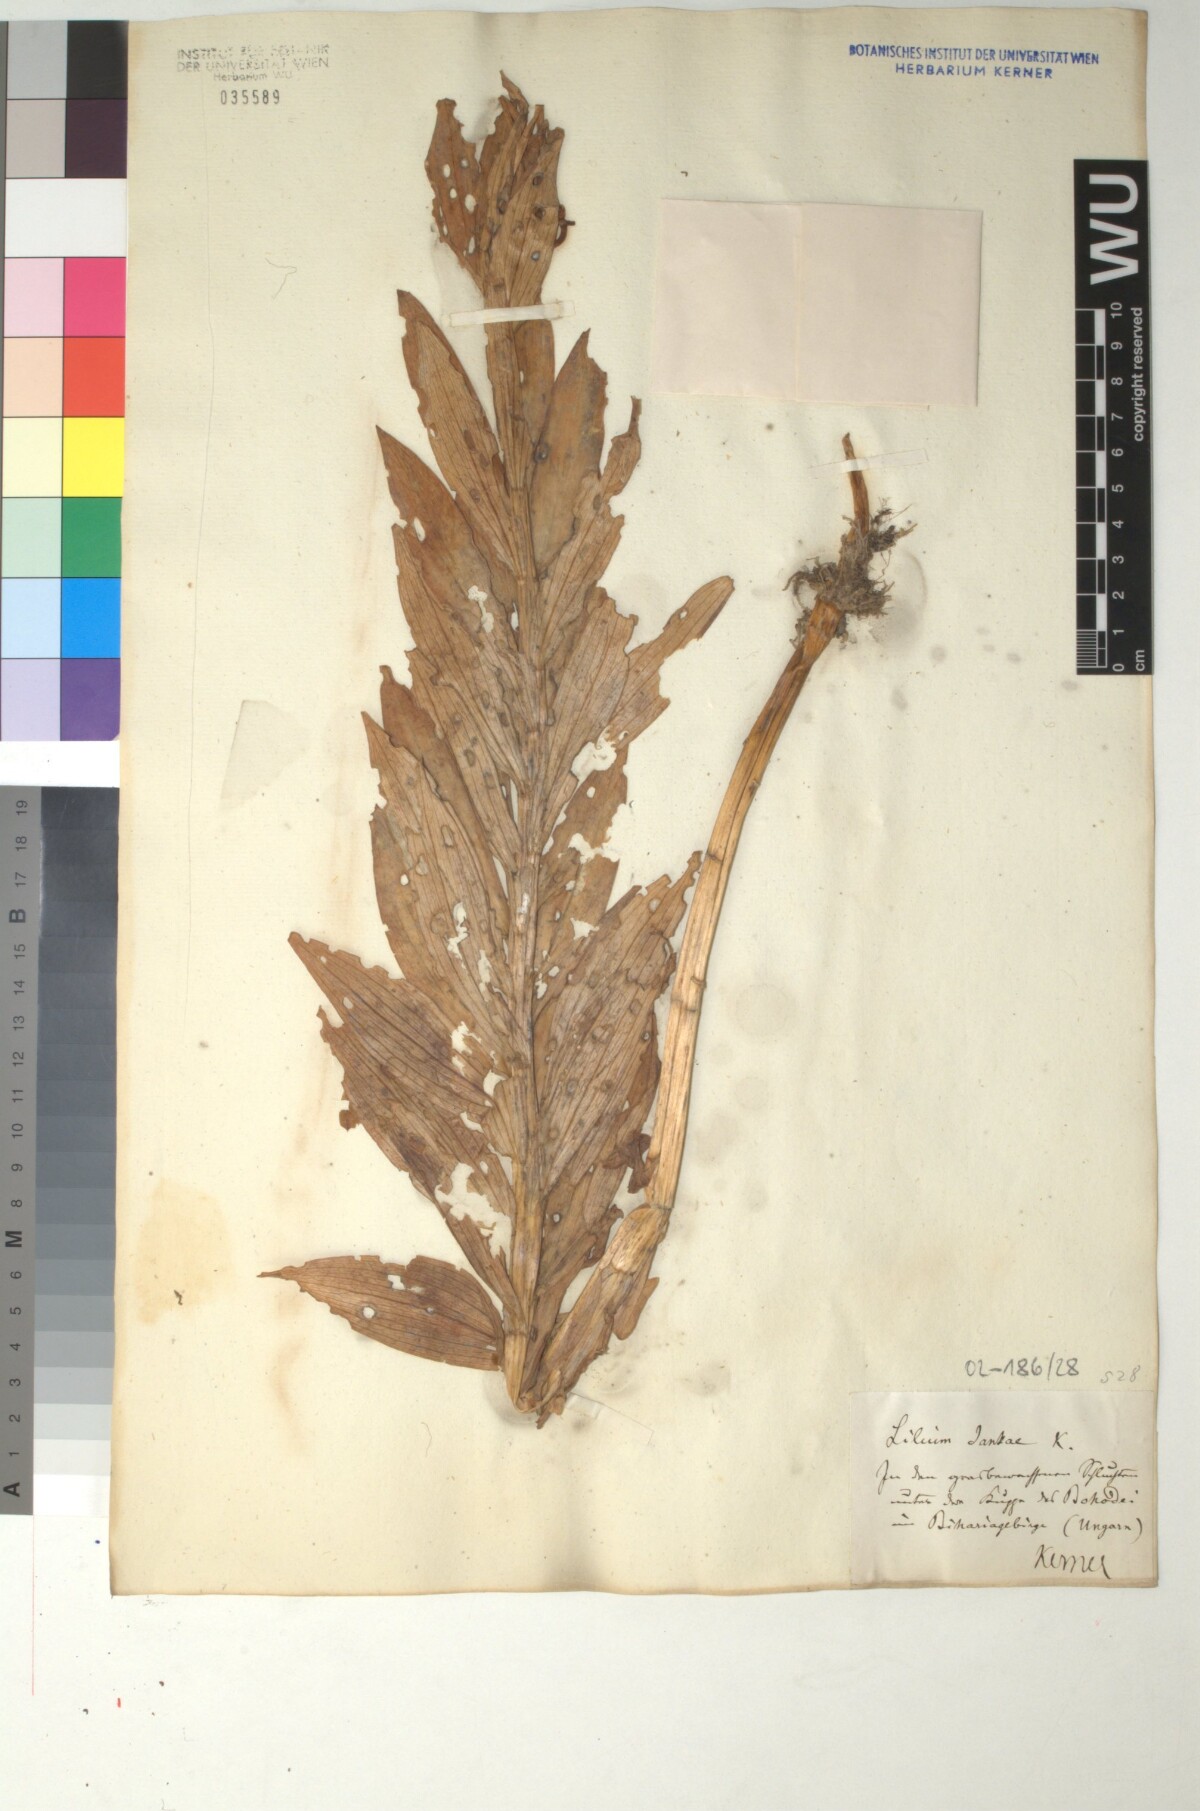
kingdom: Plantae
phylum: Tracheophyta
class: Liliopsida
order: Liliales
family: Liliaceae
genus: Lilium
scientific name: Lilium jankae
